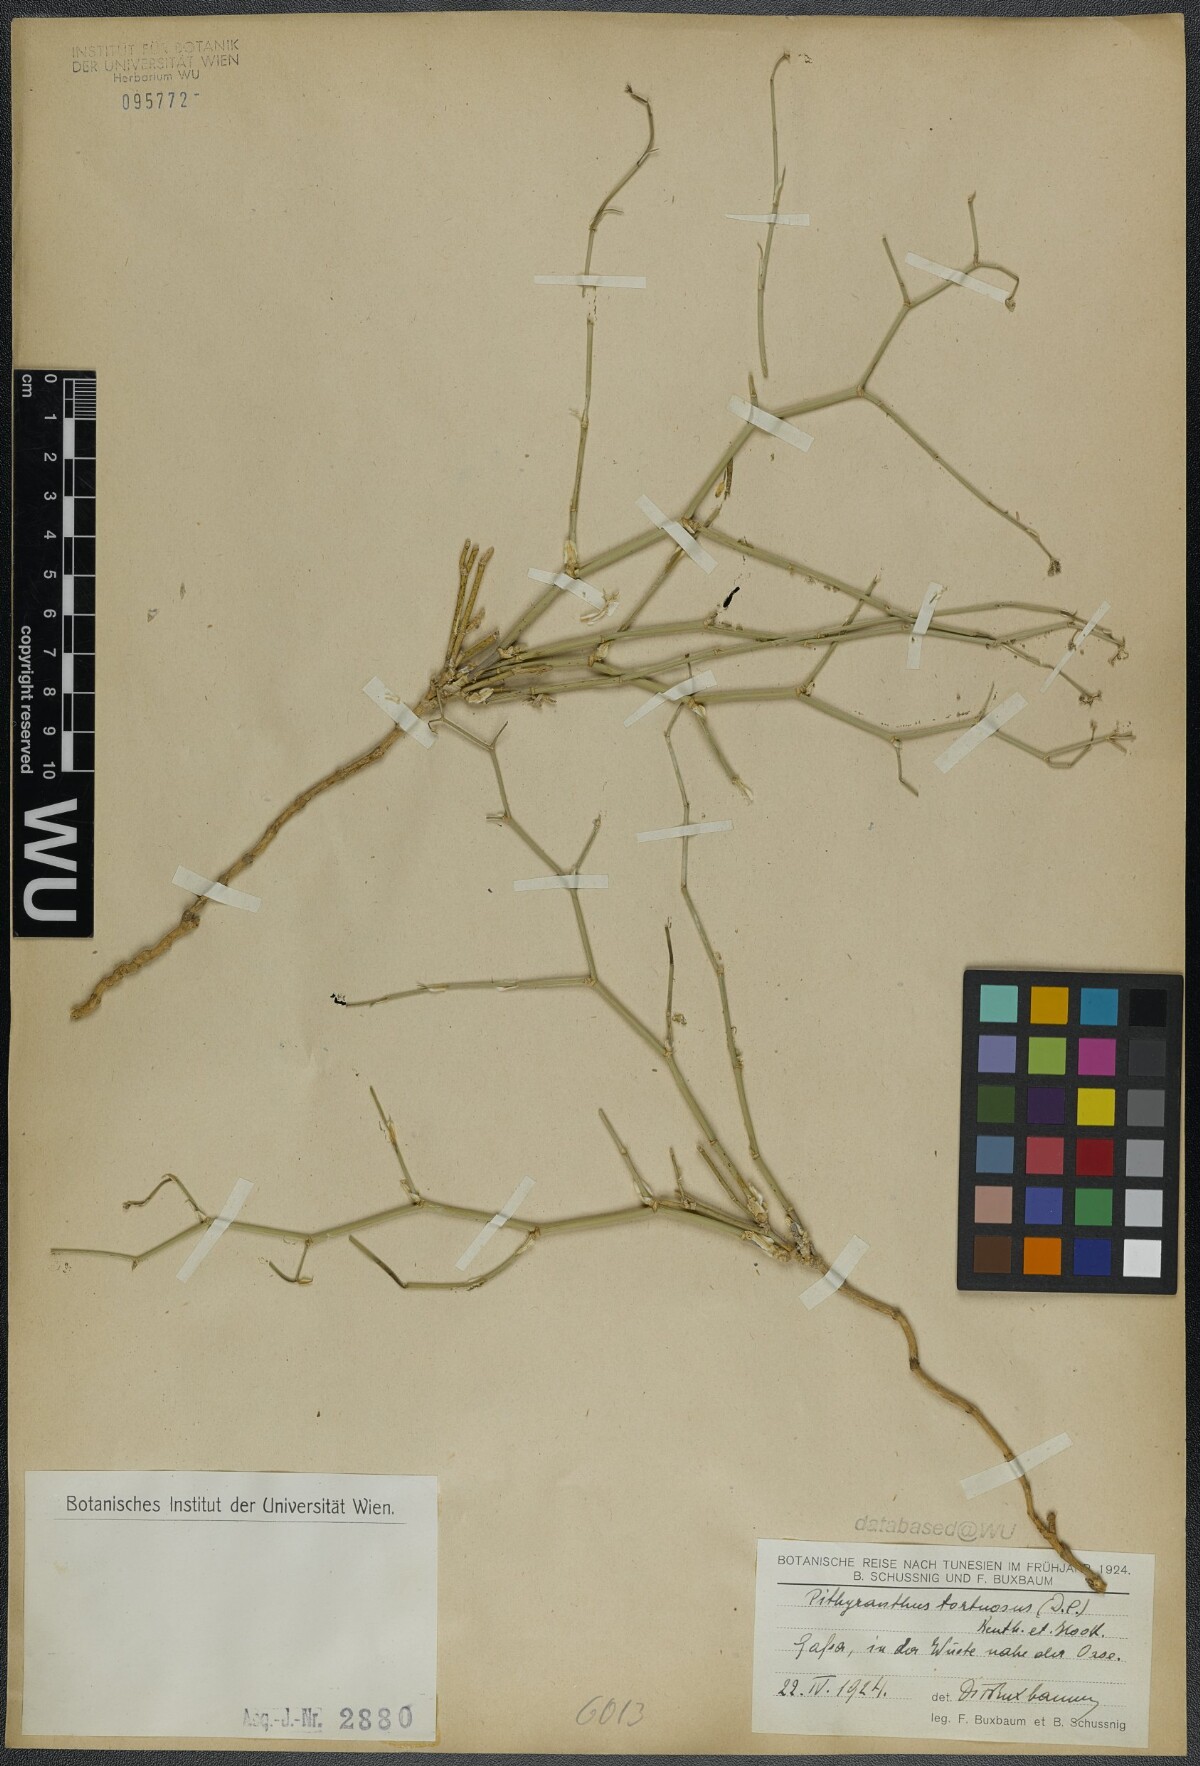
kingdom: Plantae
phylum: Tracheophyta
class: Magnoliopsida
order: Apiales
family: Apiaceae
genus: Deverra
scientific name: Deverra tortuosa
